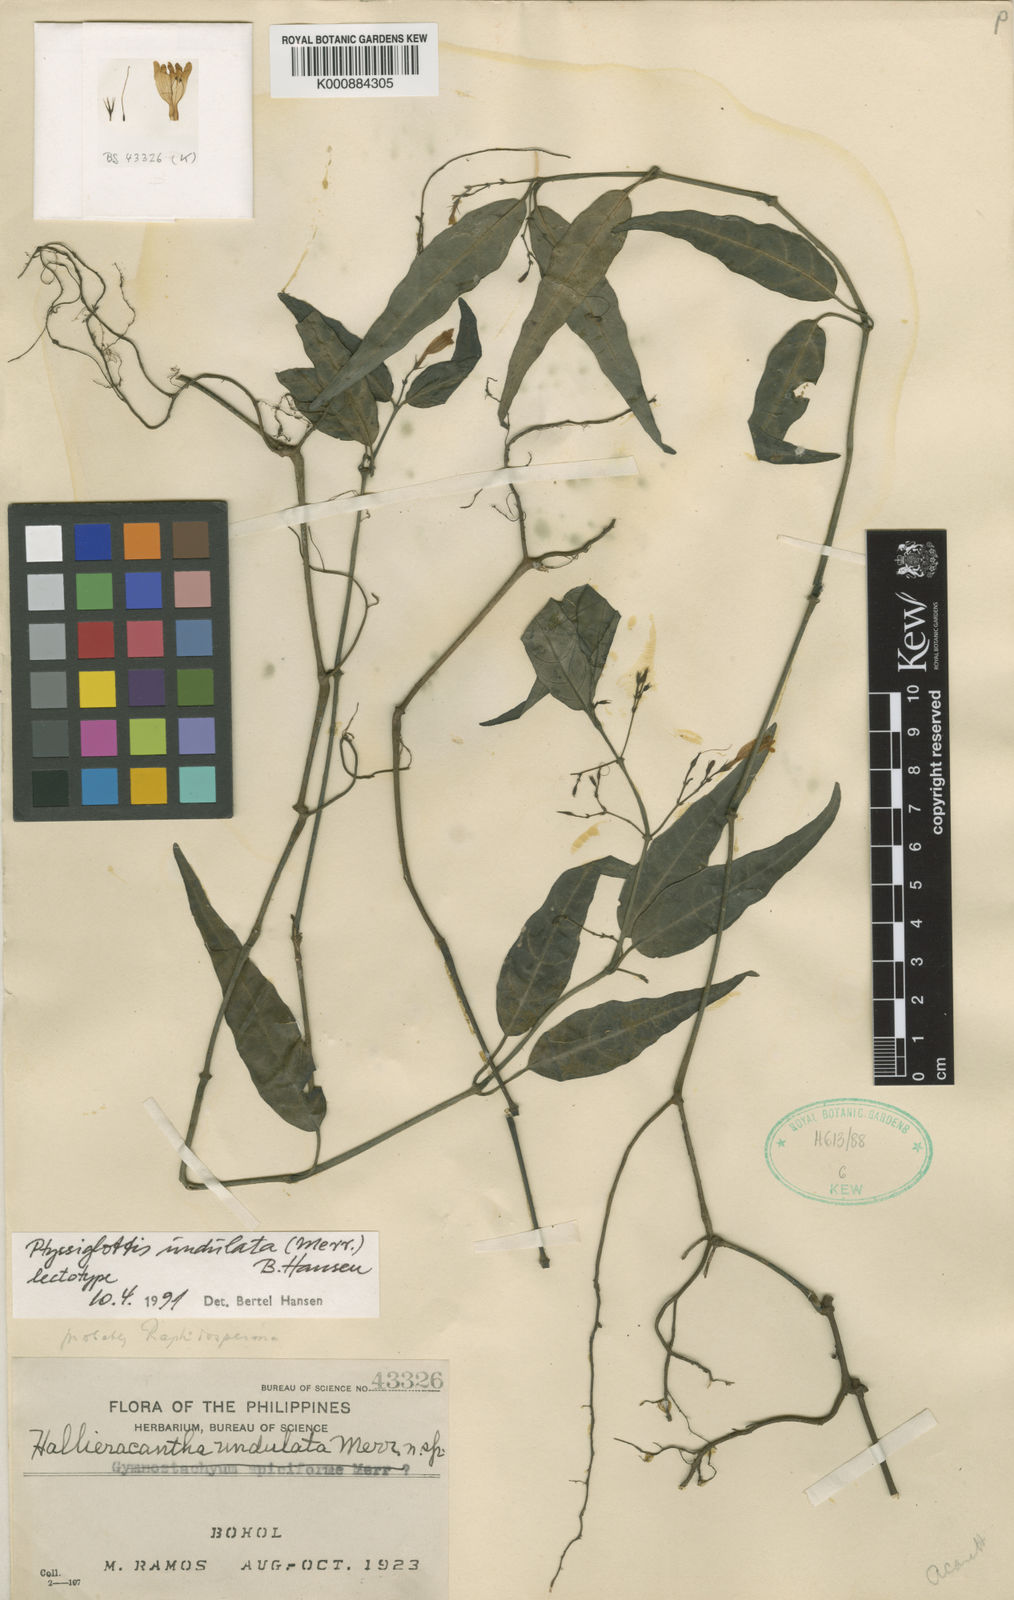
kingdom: Plantae
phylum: Tracheophyta
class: Magnoliopsida
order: Lamiales
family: Acanthaceae
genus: Ptyssiglottis
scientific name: Ptyssiglottis undulata
